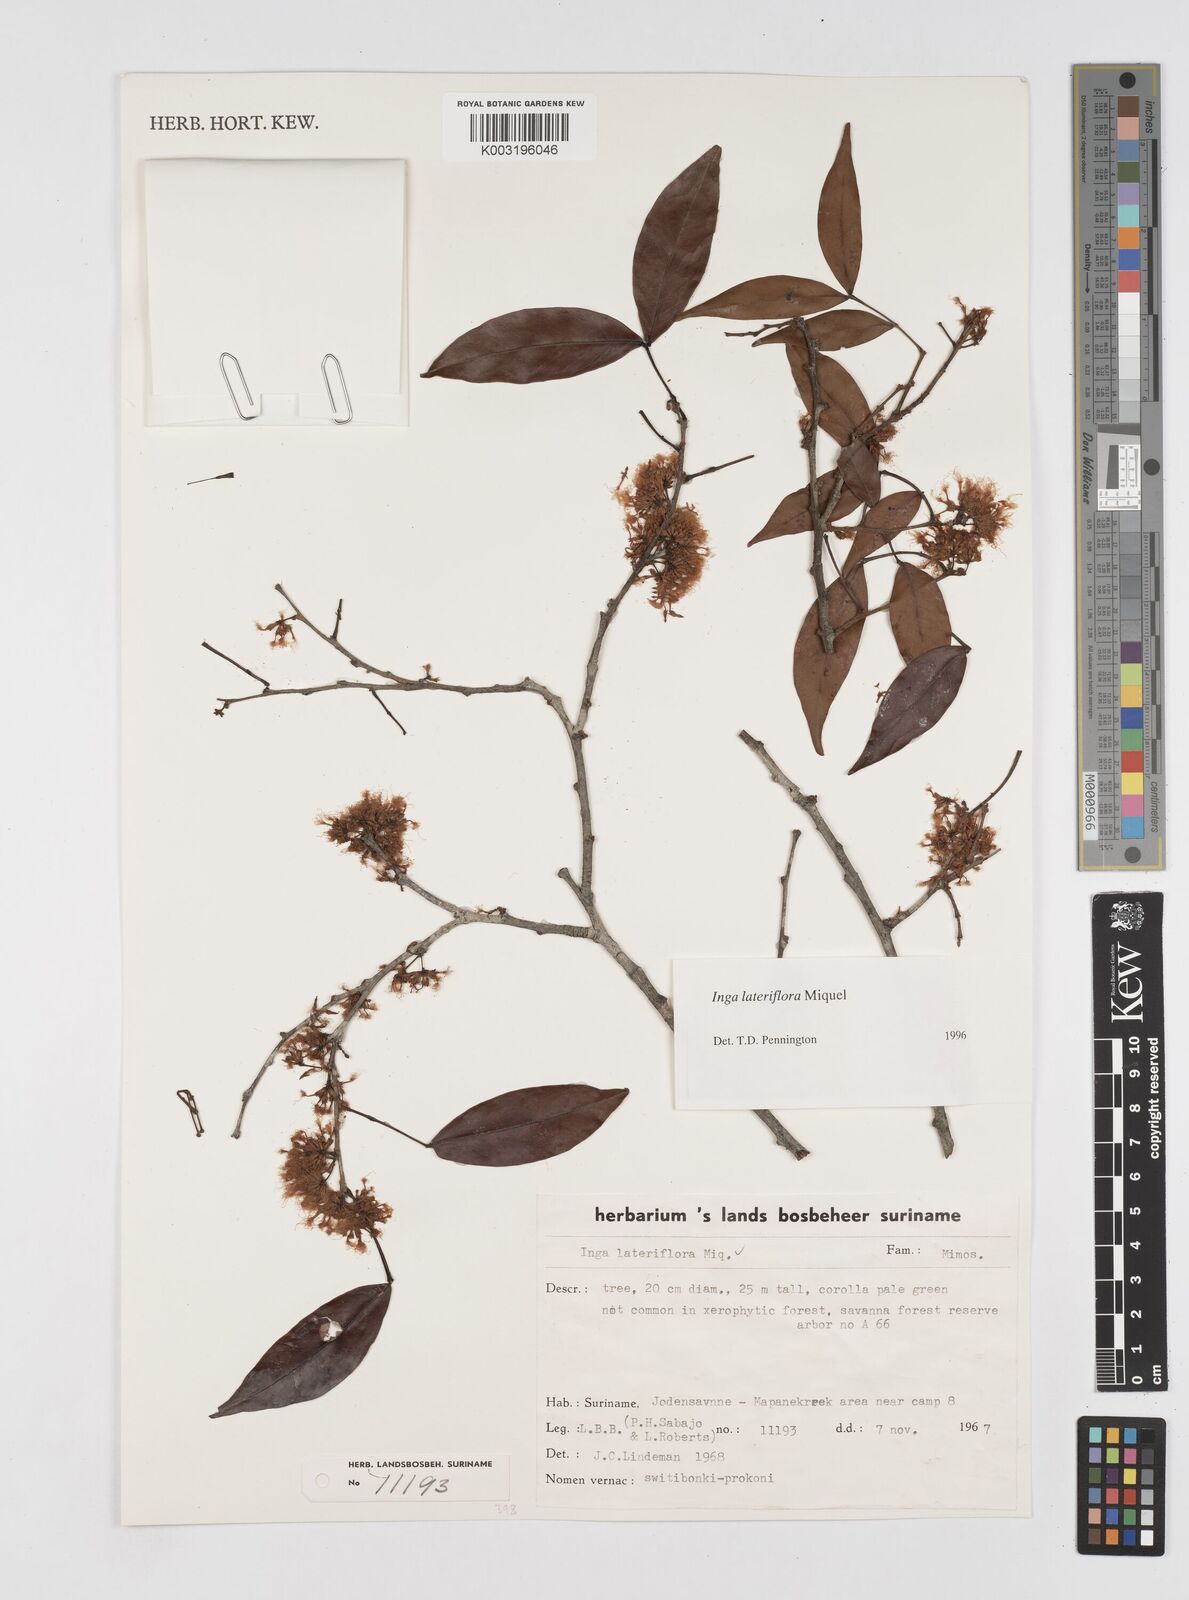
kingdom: Plantae
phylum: Tracheophyta
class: Magnoliopsida
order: Fabales
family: Fabaceae
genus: Inga
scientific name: Inga lateriflora
